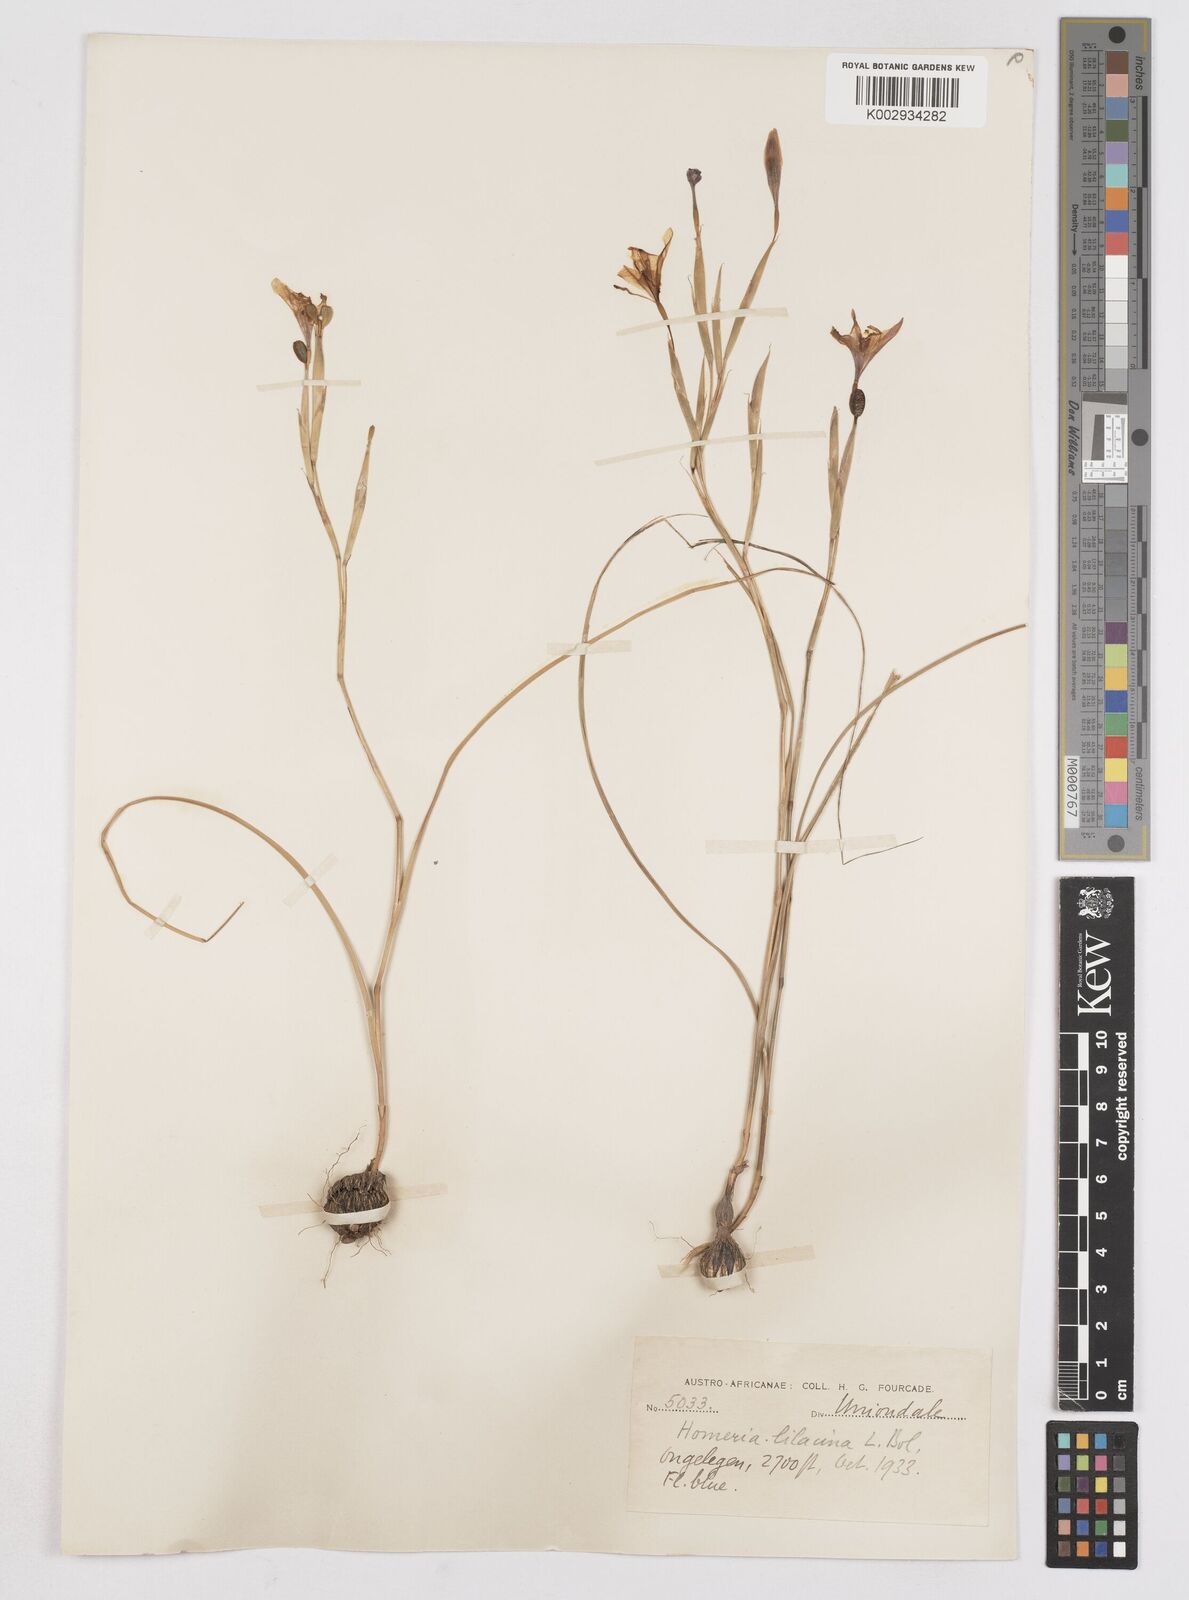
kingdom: Plantae
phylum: Tracheophyta
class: Liliopsida
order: Asparagales
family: Iridaceae
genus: Moraea
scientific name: Moraea
